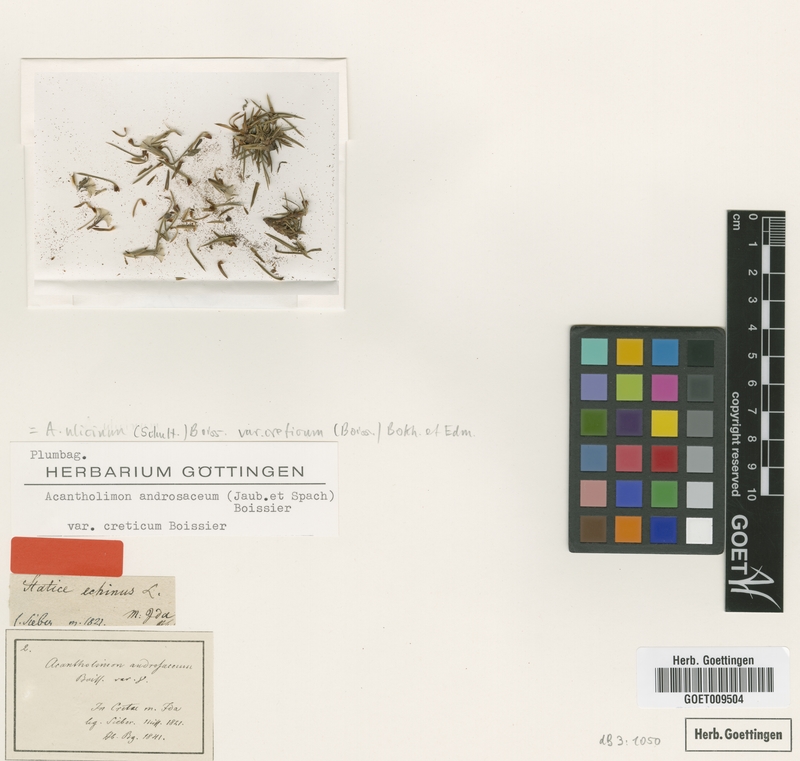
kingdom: Plantae
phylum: Tracheophyta
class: Magnoliopsida
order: Caryophyllales
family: Plumbaginaceae
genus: Acantholimon
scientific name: Acantholimon creticum
